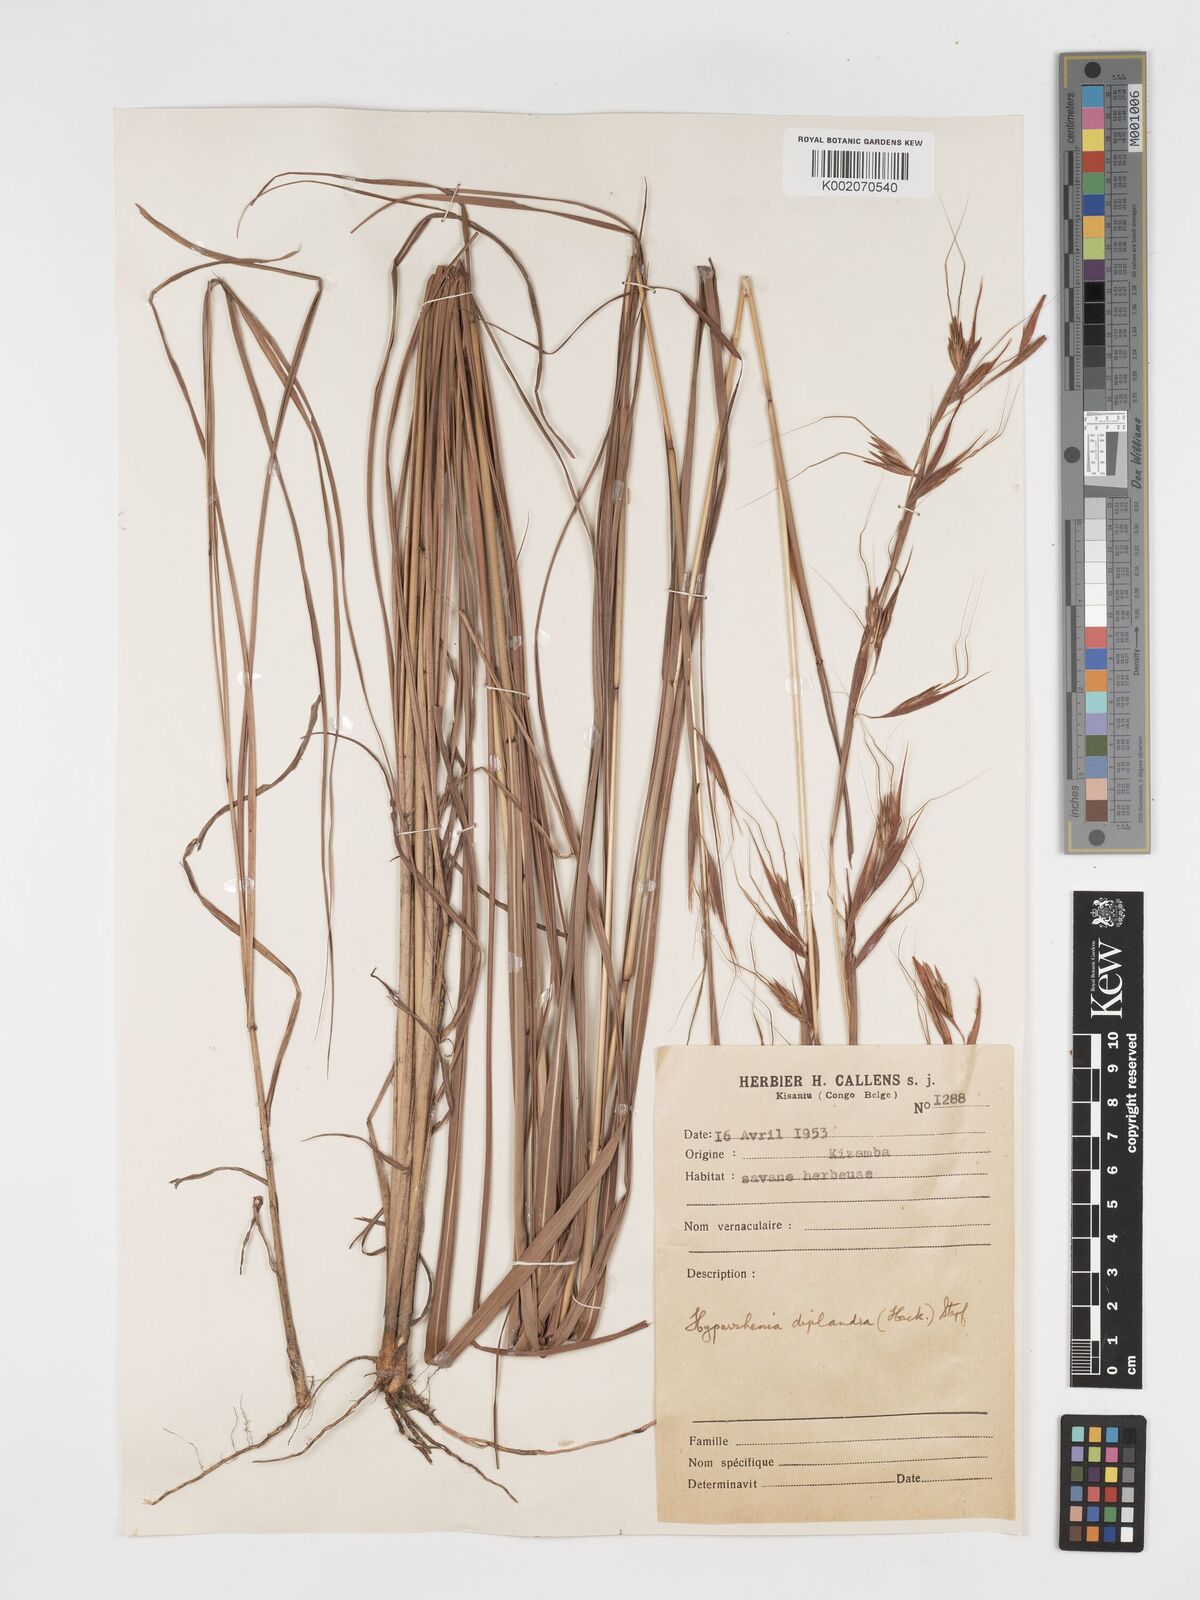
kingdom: Plantae
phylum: Tracheophyta
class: Liliopsida
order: Poales
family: Poaceae
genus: Hyparrhenia
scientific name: Hyparrhenia diplandra
